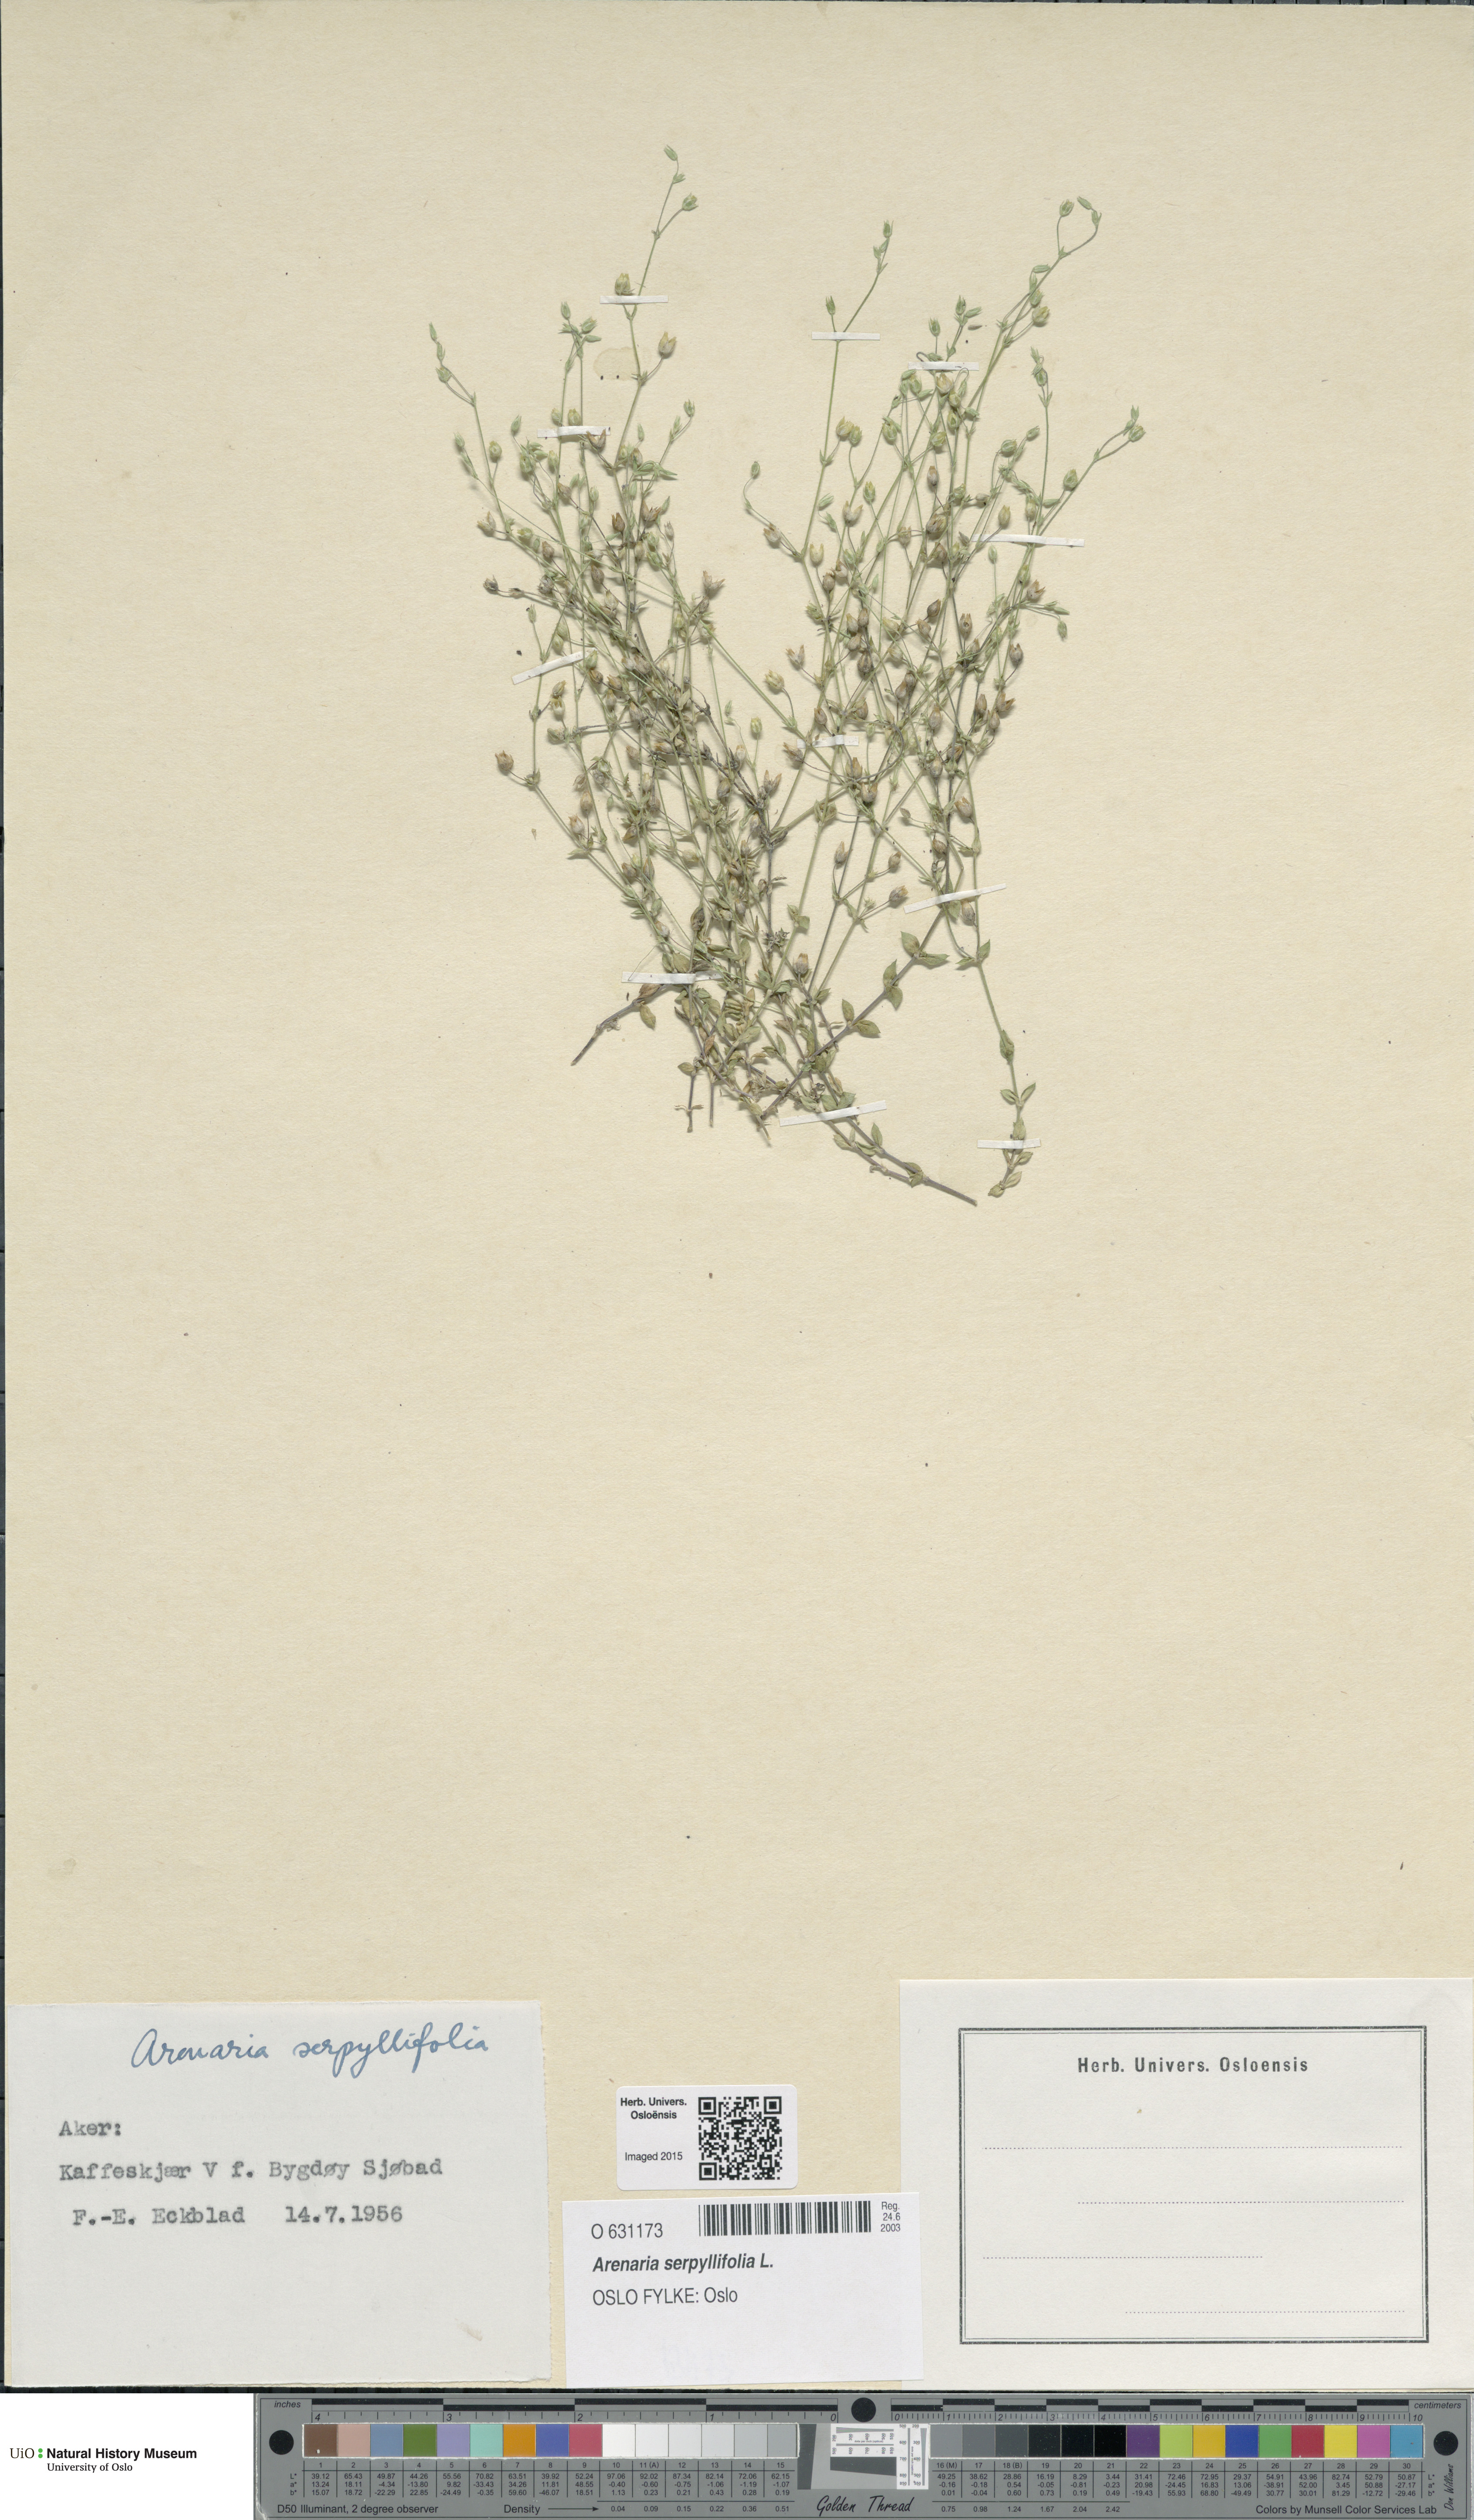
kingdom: Plantae
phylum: Tracheophyta
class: Magnoliopsida
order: Caryophyllales
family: Caryophyllaceae
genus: Arenaria
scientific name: Arenaria serpyllifolia
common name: Thyme-leaved sandwort
